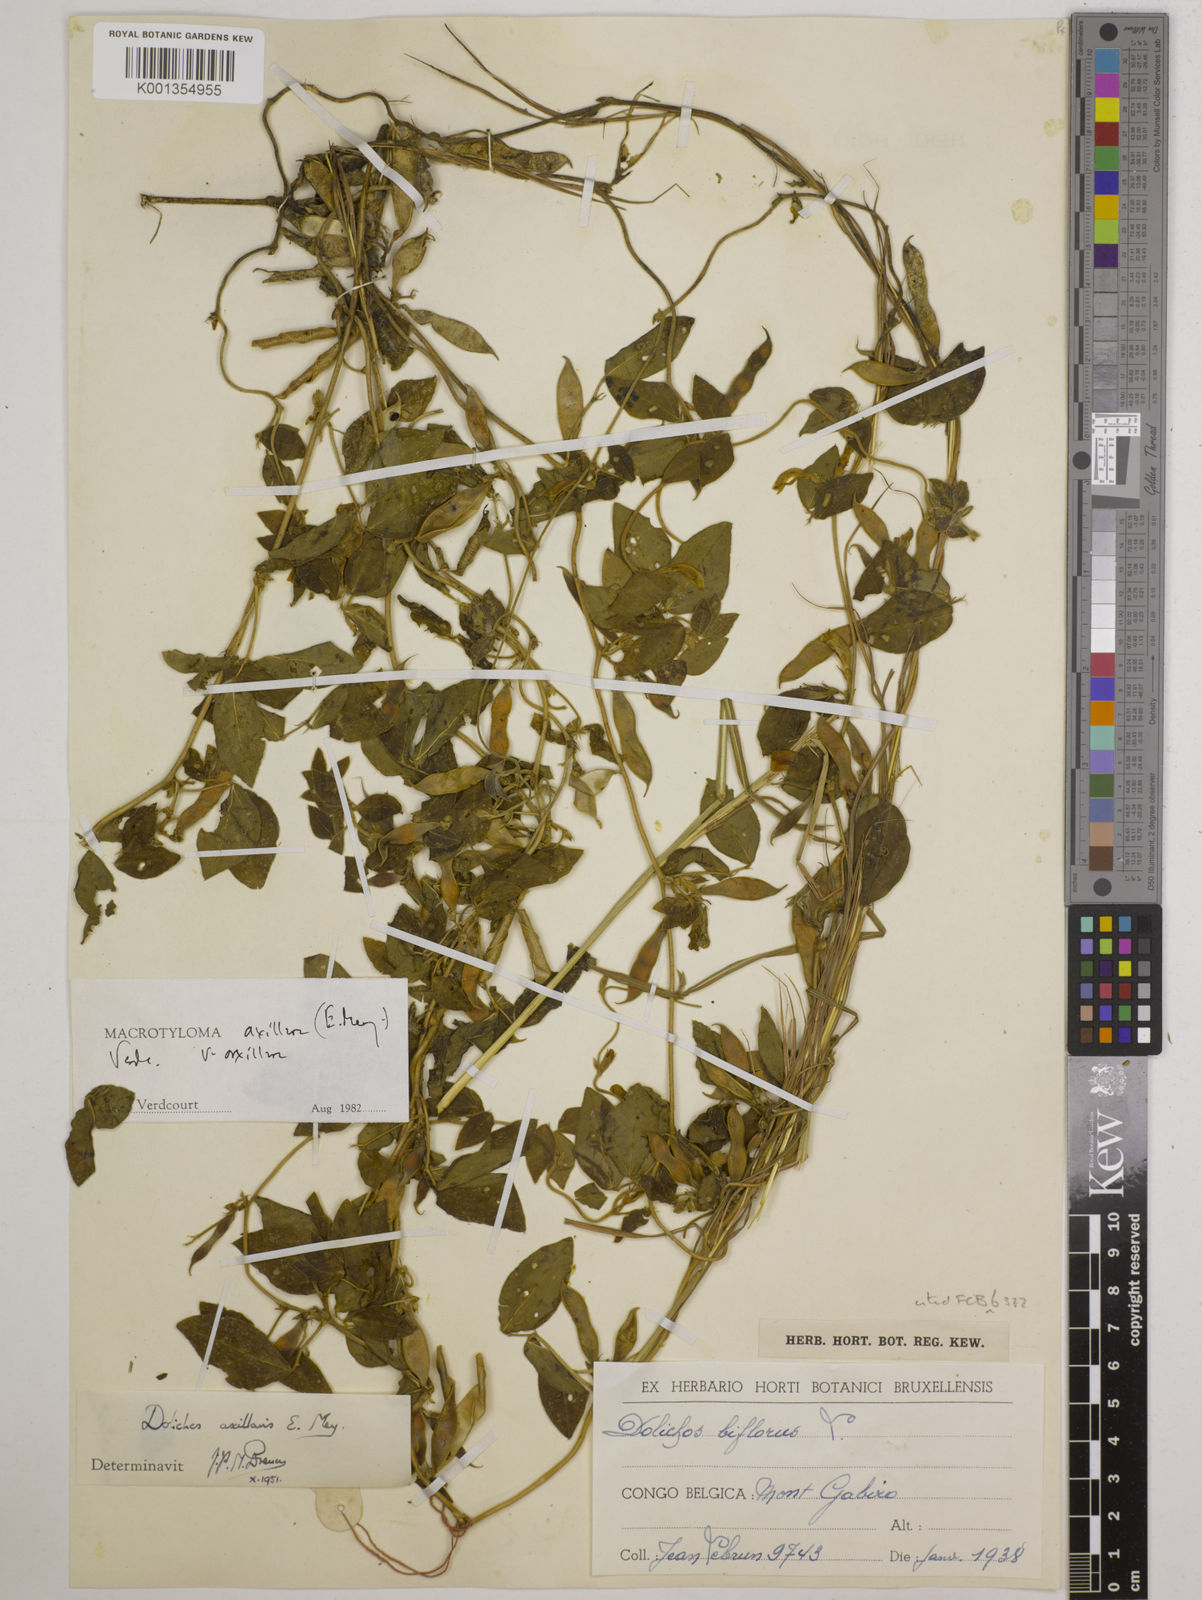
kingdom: Plantae
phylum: Tracheophyta
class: Magnoliopsida
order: Fabales
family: Fabaceae
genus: Macrotyloma
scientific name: Macrotyloma axillare
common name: Perennial horsegram
